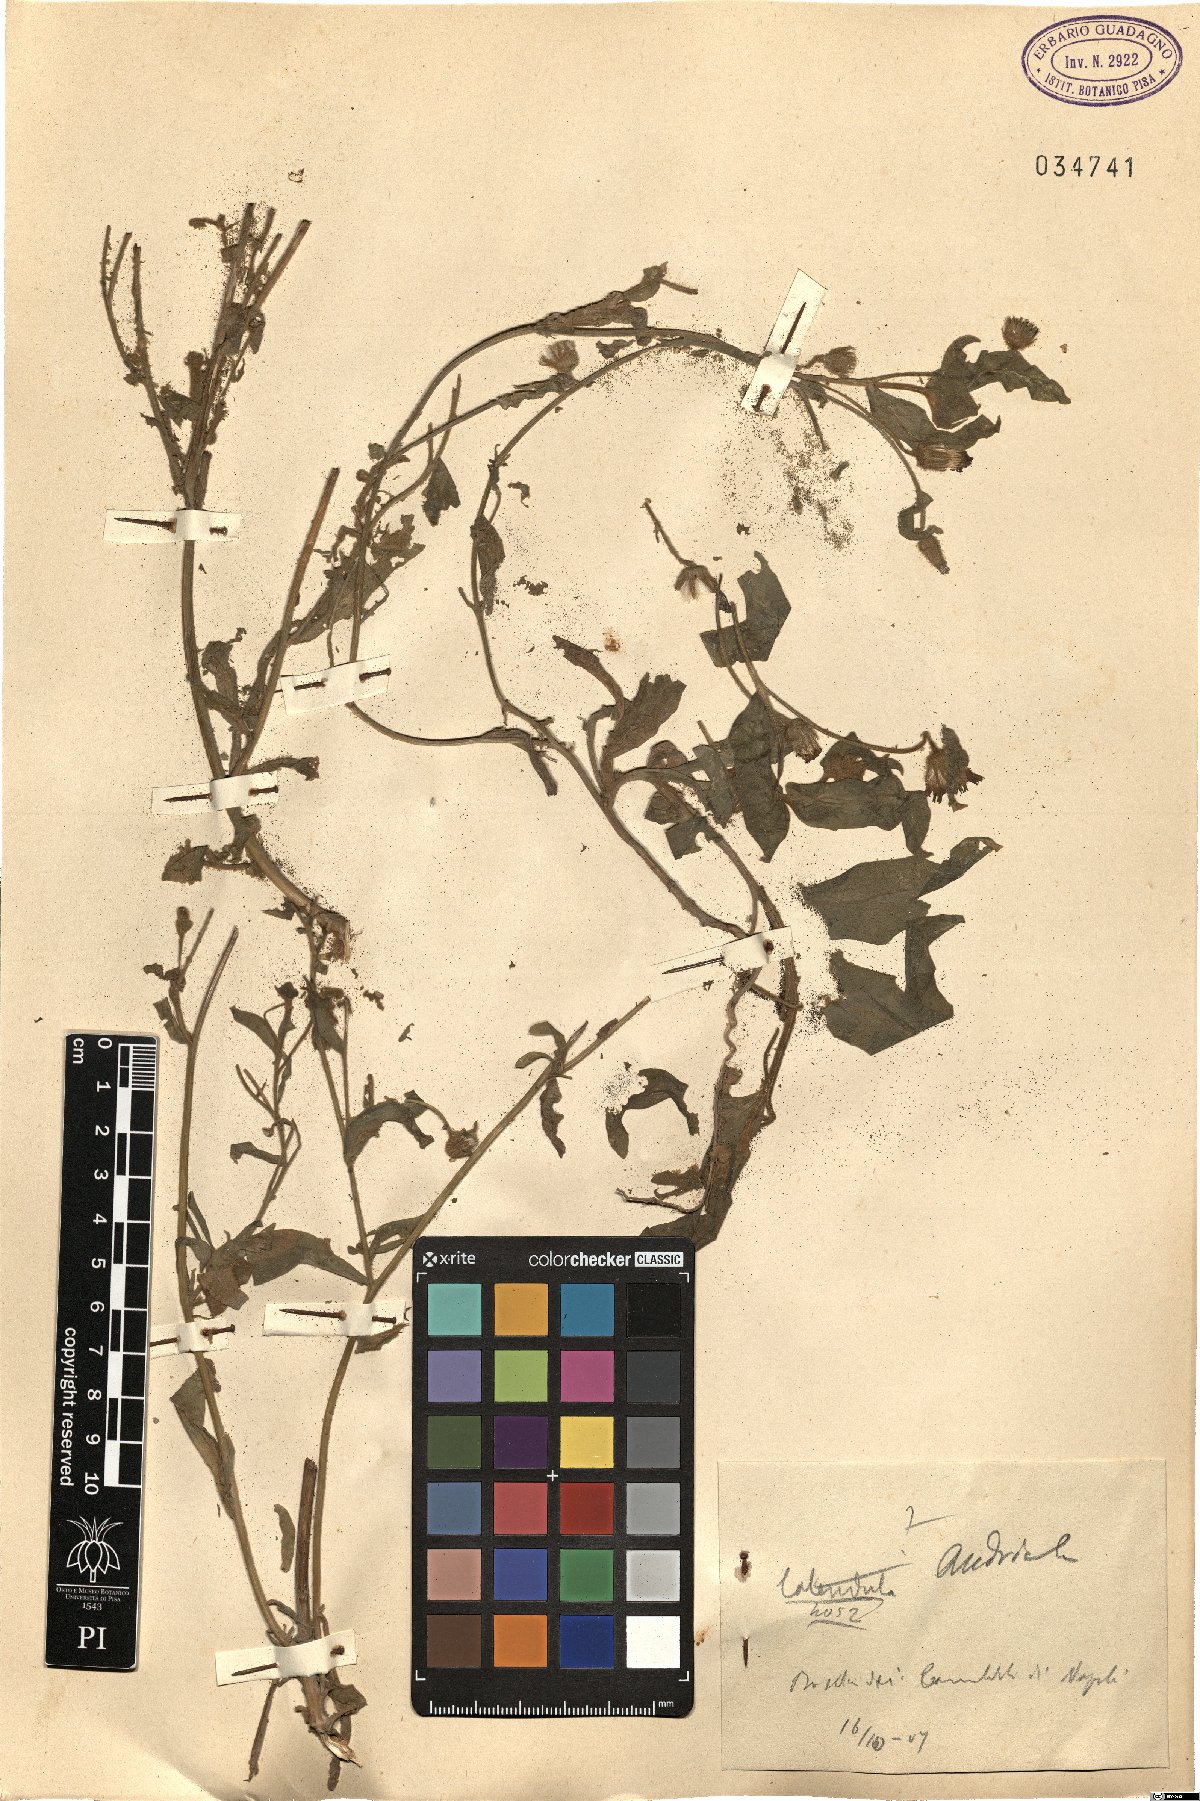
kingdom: Plantae
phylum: Tracheophyta
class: Magnoliopsida
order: Asterales
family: Asteraceae
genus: Andryala
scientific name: Andryala
